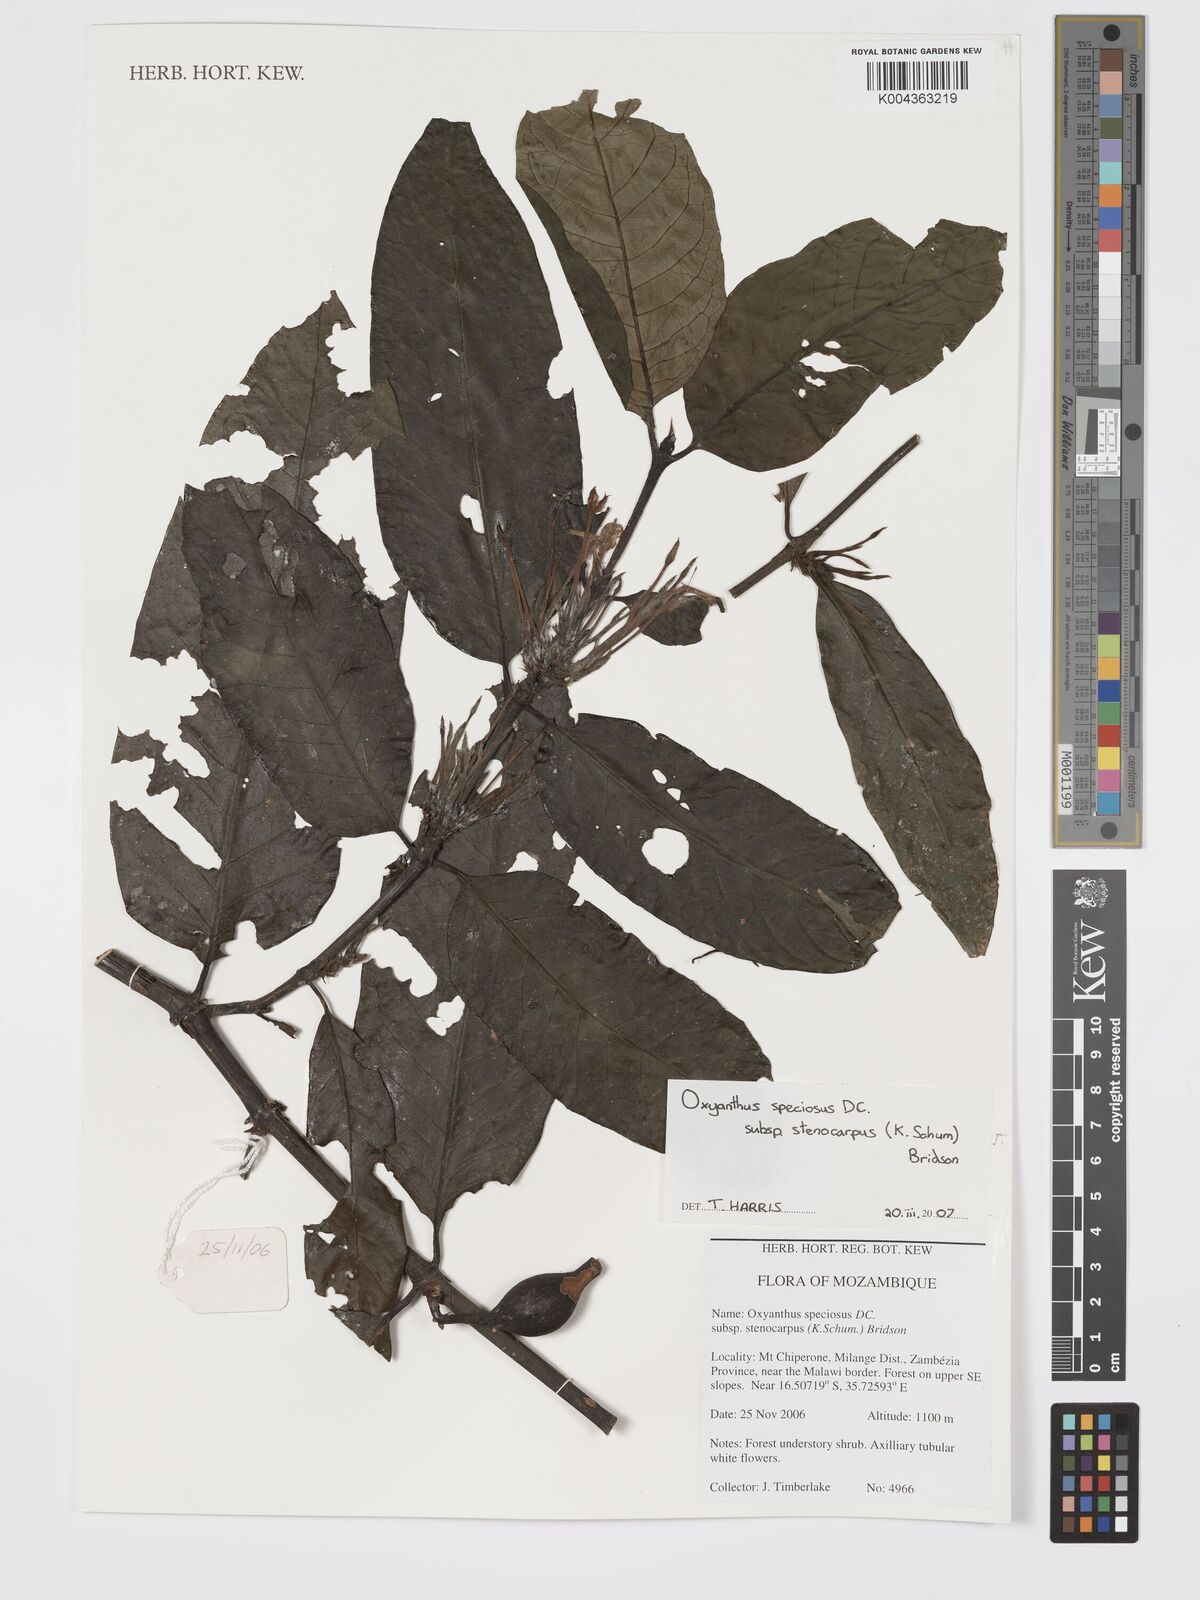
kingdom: Plantae
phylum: Tracheophyta
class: Magnoliopsida
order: Gentianales
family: Rubiaceae
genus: Oxyanthus
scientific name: Oxyanthus speciosus
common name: Whipstick loquat
